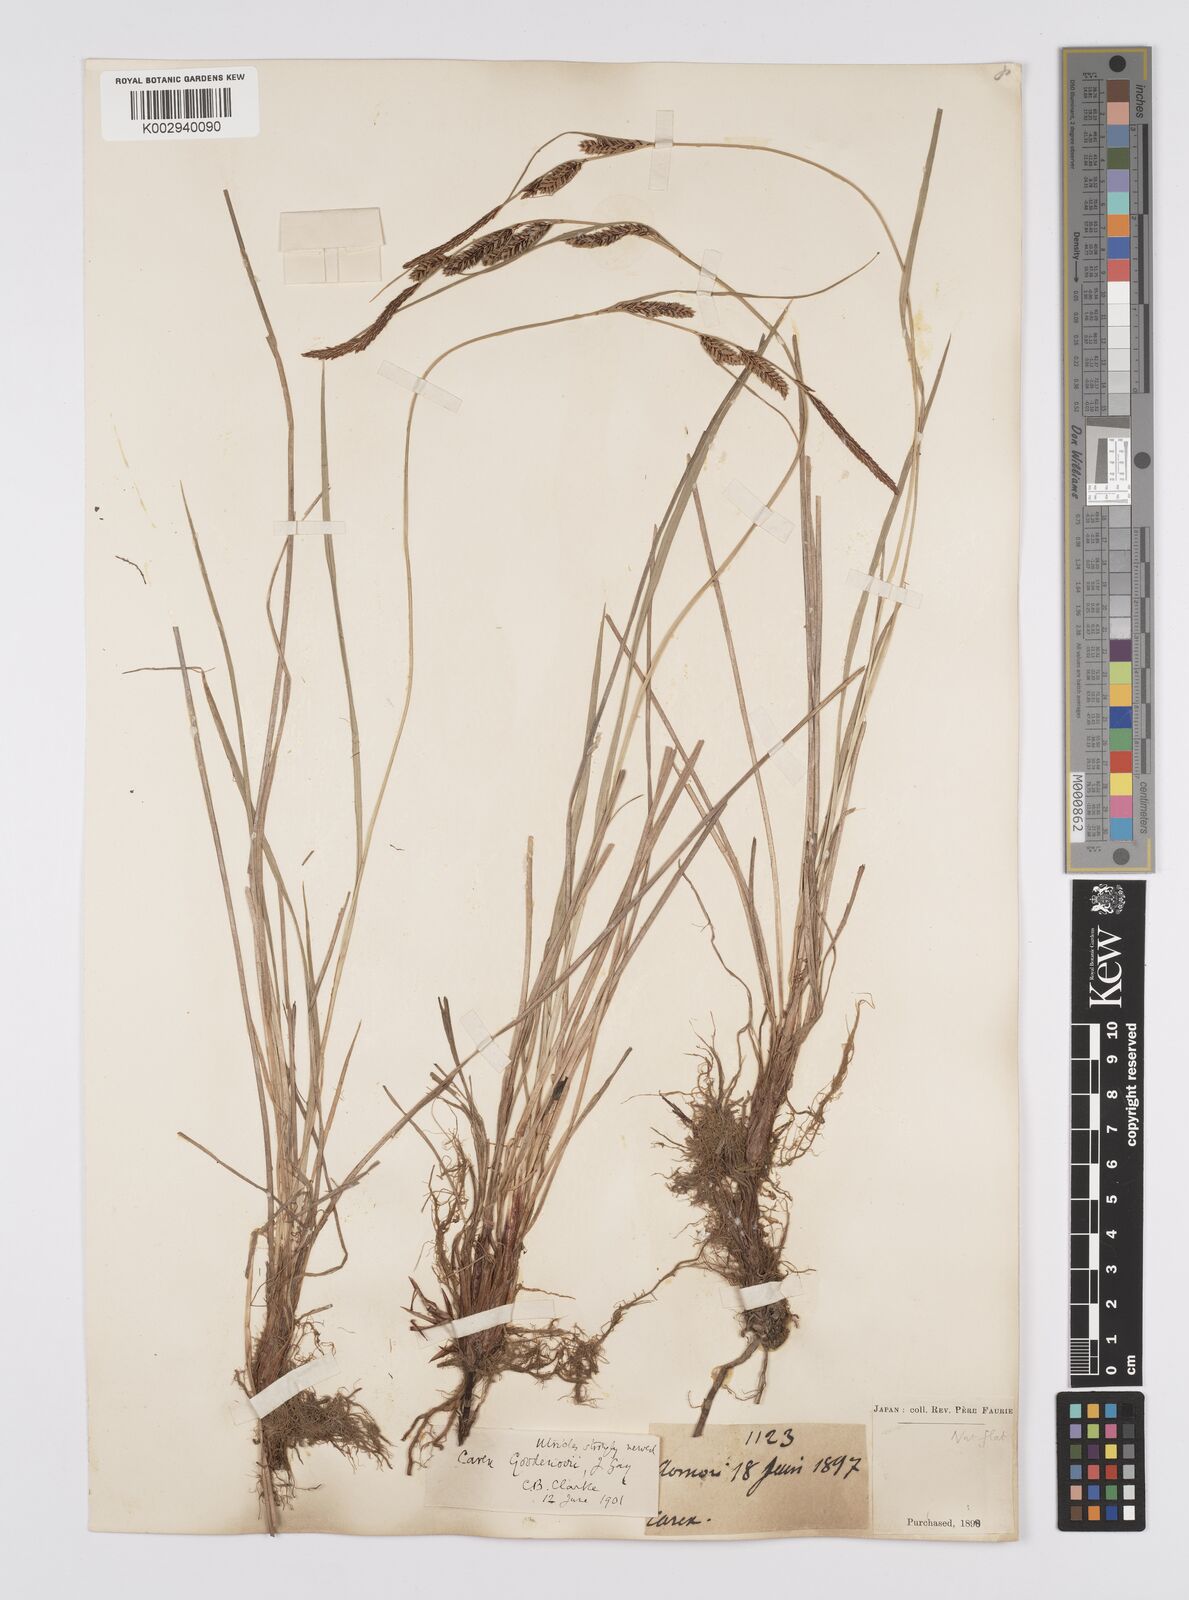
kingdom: Plantae
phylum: Tracheophyta
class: Liliopsida
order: Poales
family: Cyperaceae
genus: Carex
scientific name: Carex thunbergii
